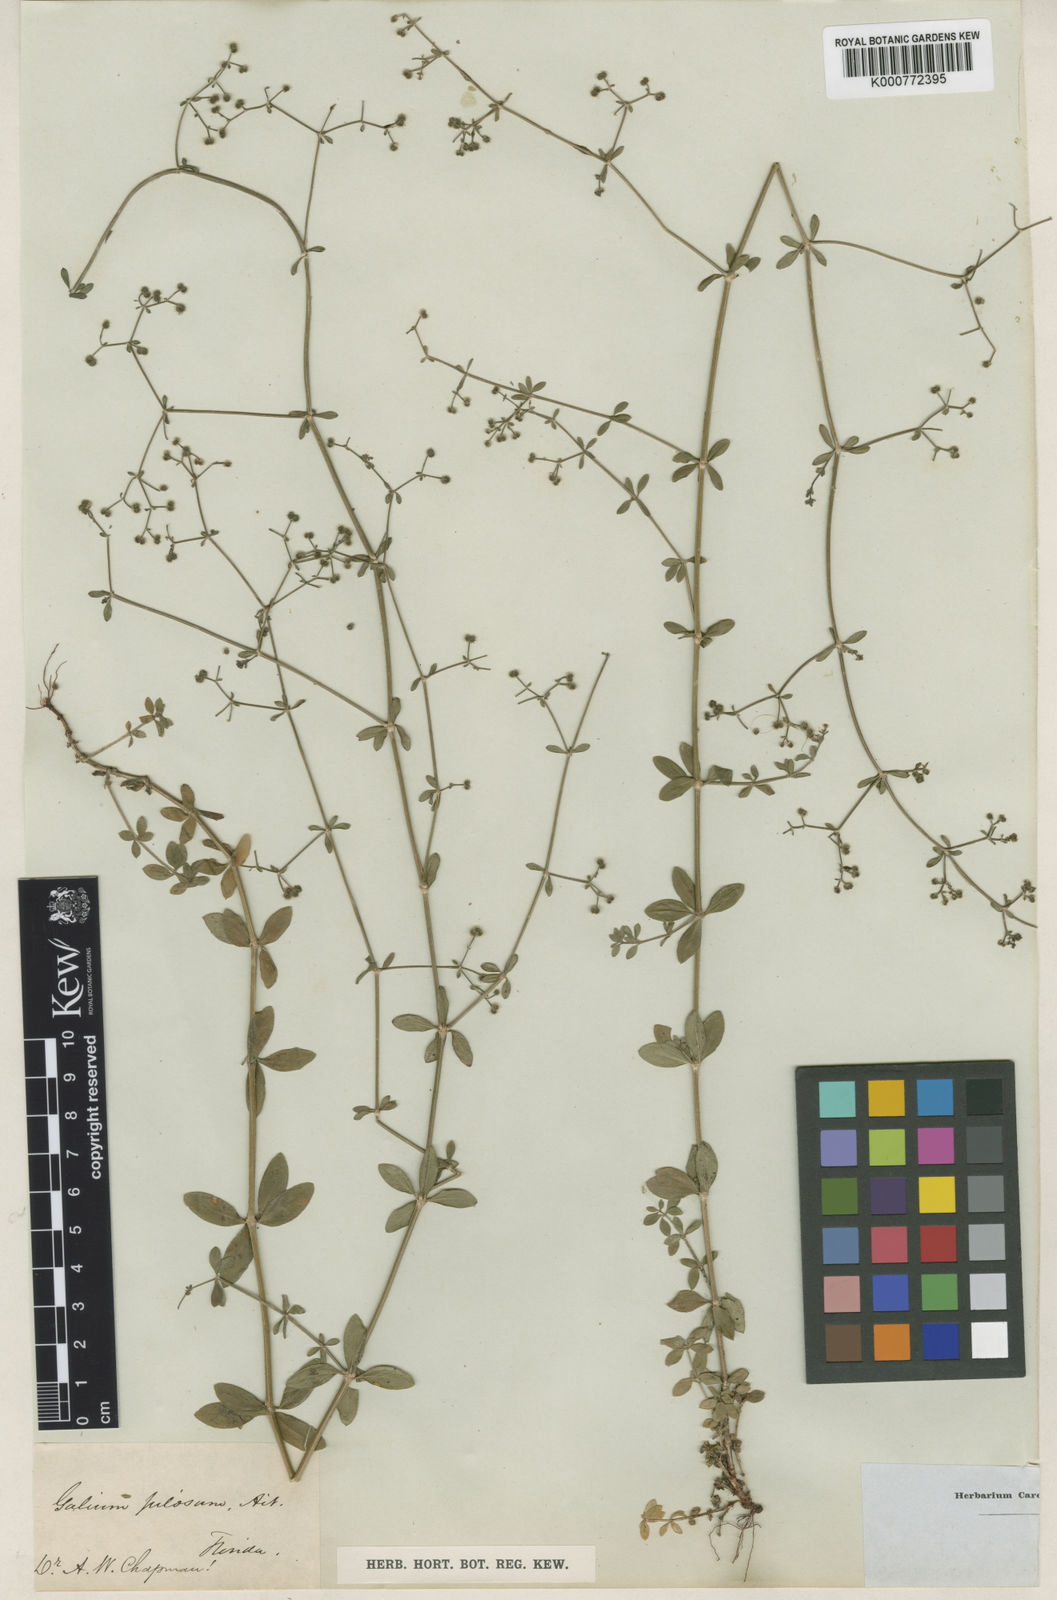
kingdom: Plantae
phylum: Tracheophyta
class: Magnoliopsida
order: Gentianales
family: Rubiaceae
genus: Galium
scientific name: Galium pilosum
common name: Hairy bedstraw
